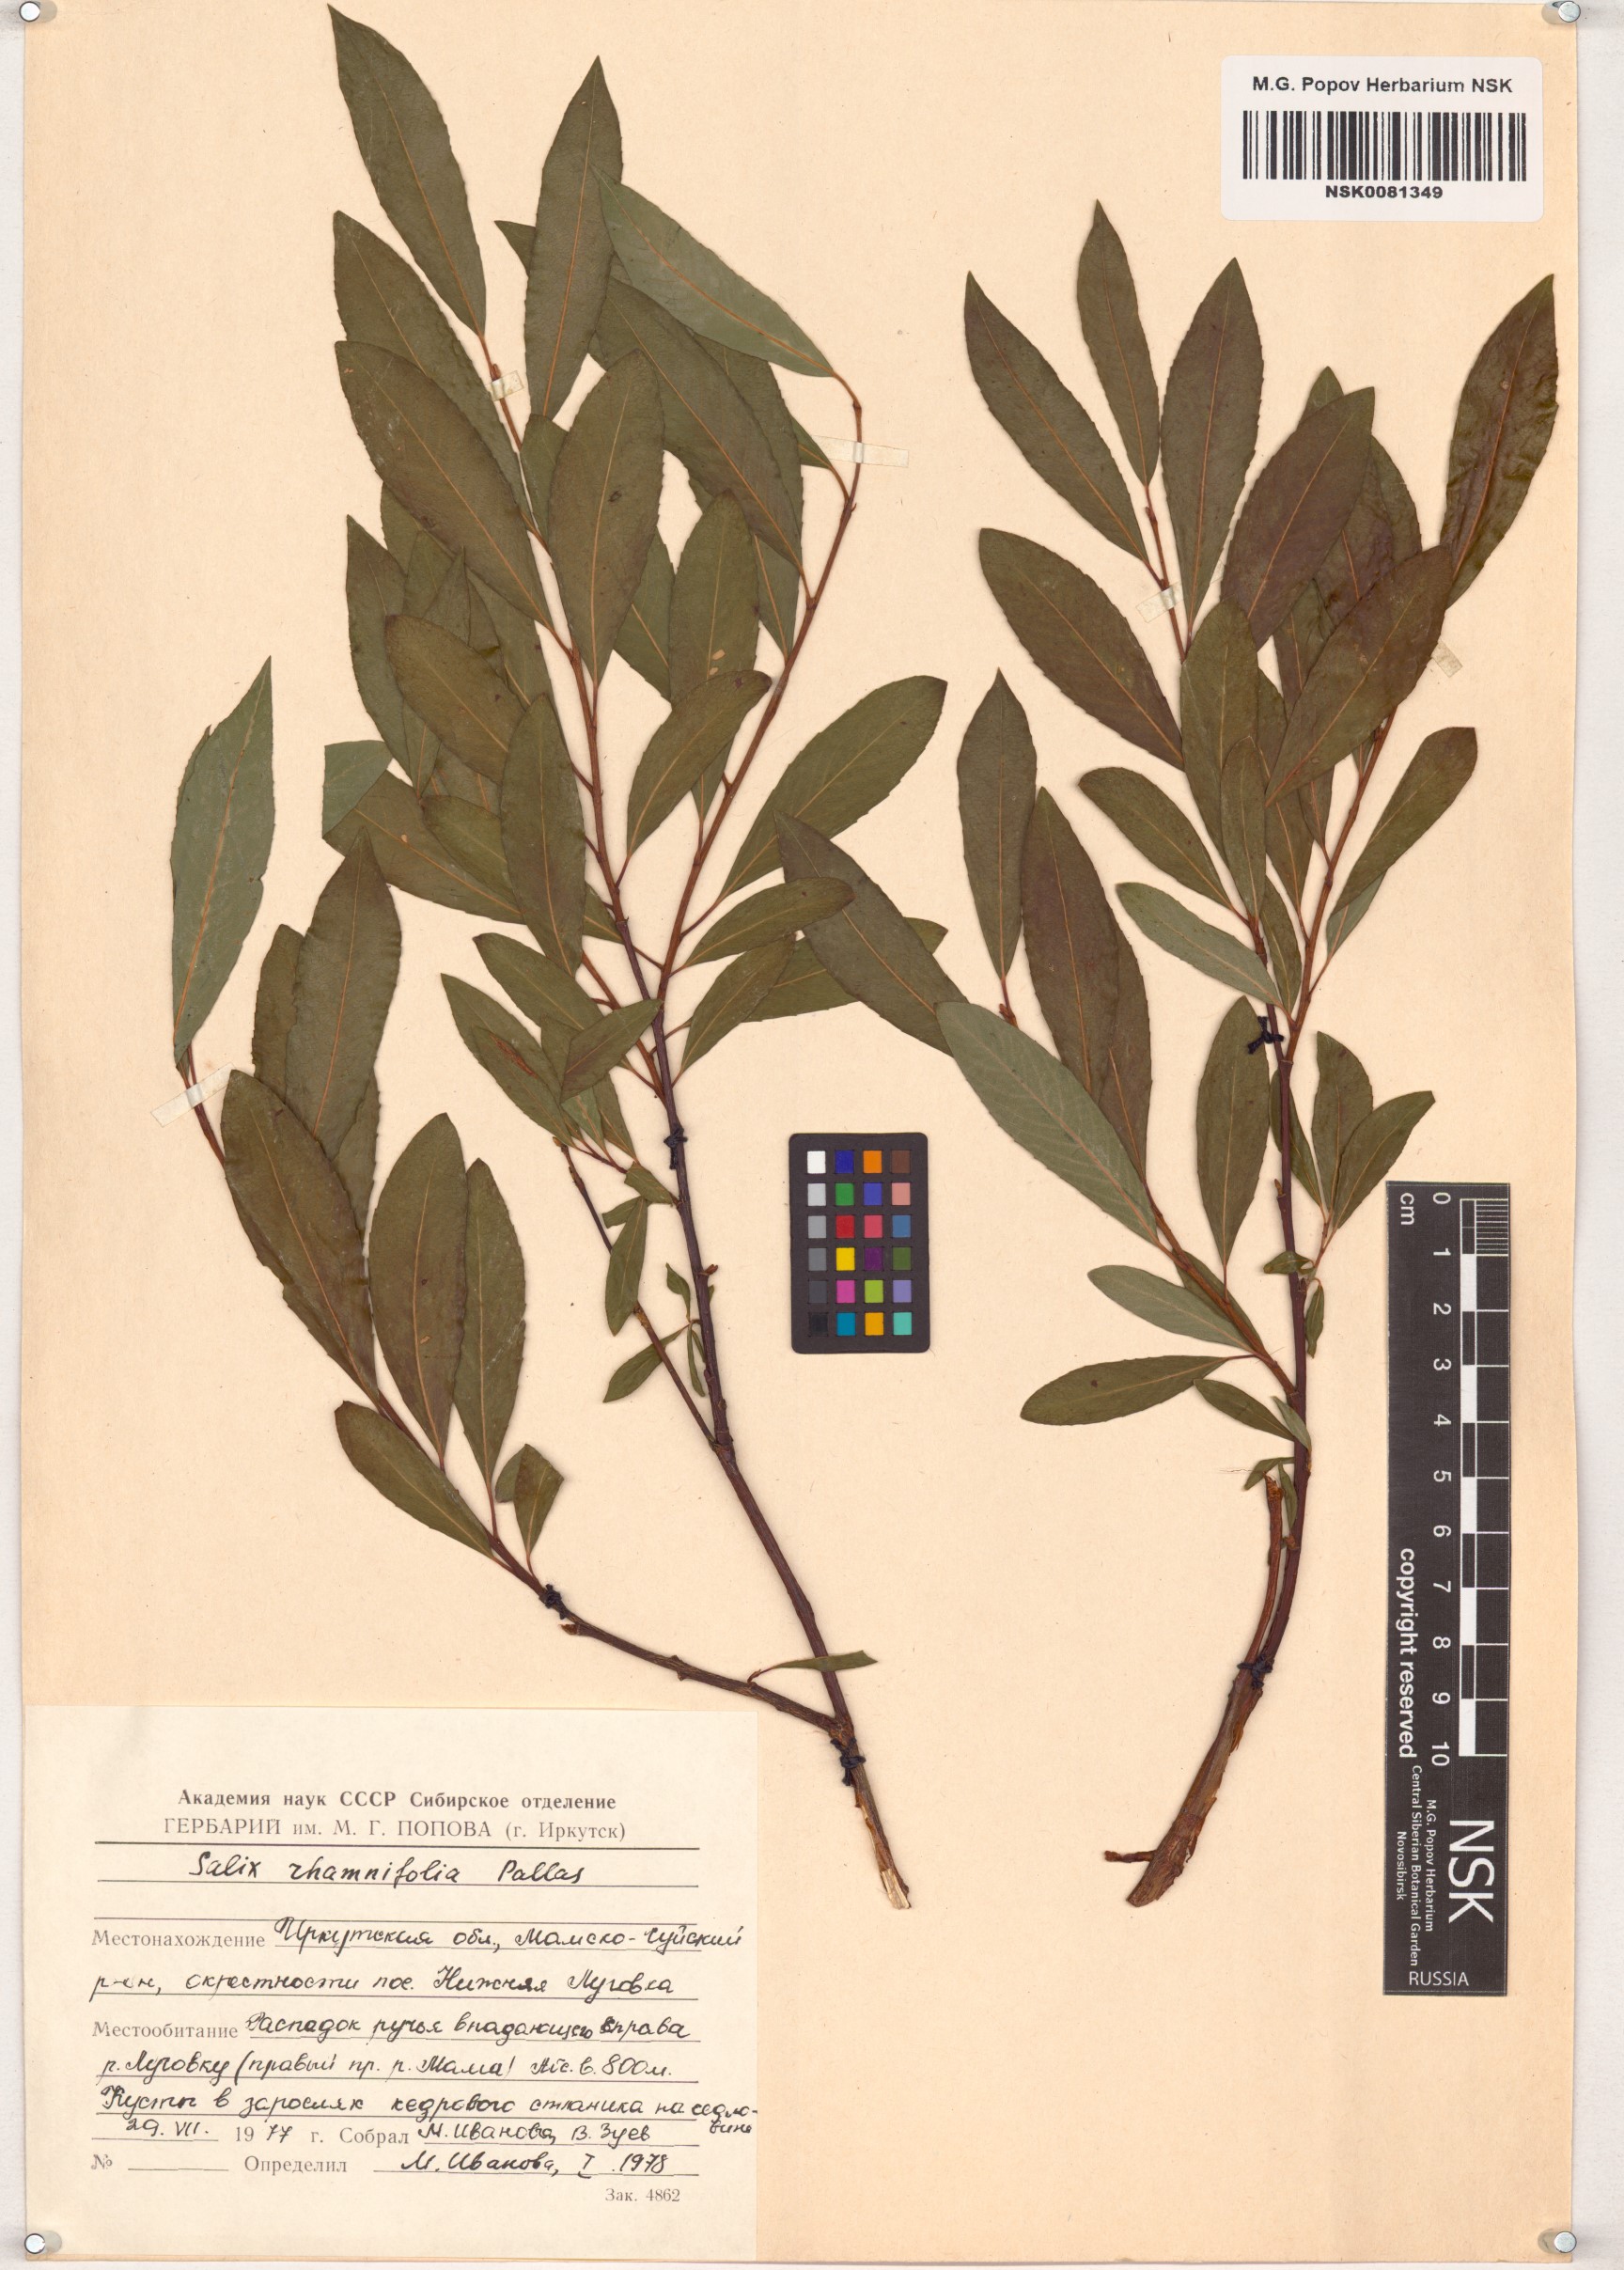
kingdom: Plantae
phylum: Tracheophyta
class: Magnoliopsida
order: Malpighiales
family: Salicaceae
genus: Salix
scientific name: Salix rhamnifolia
